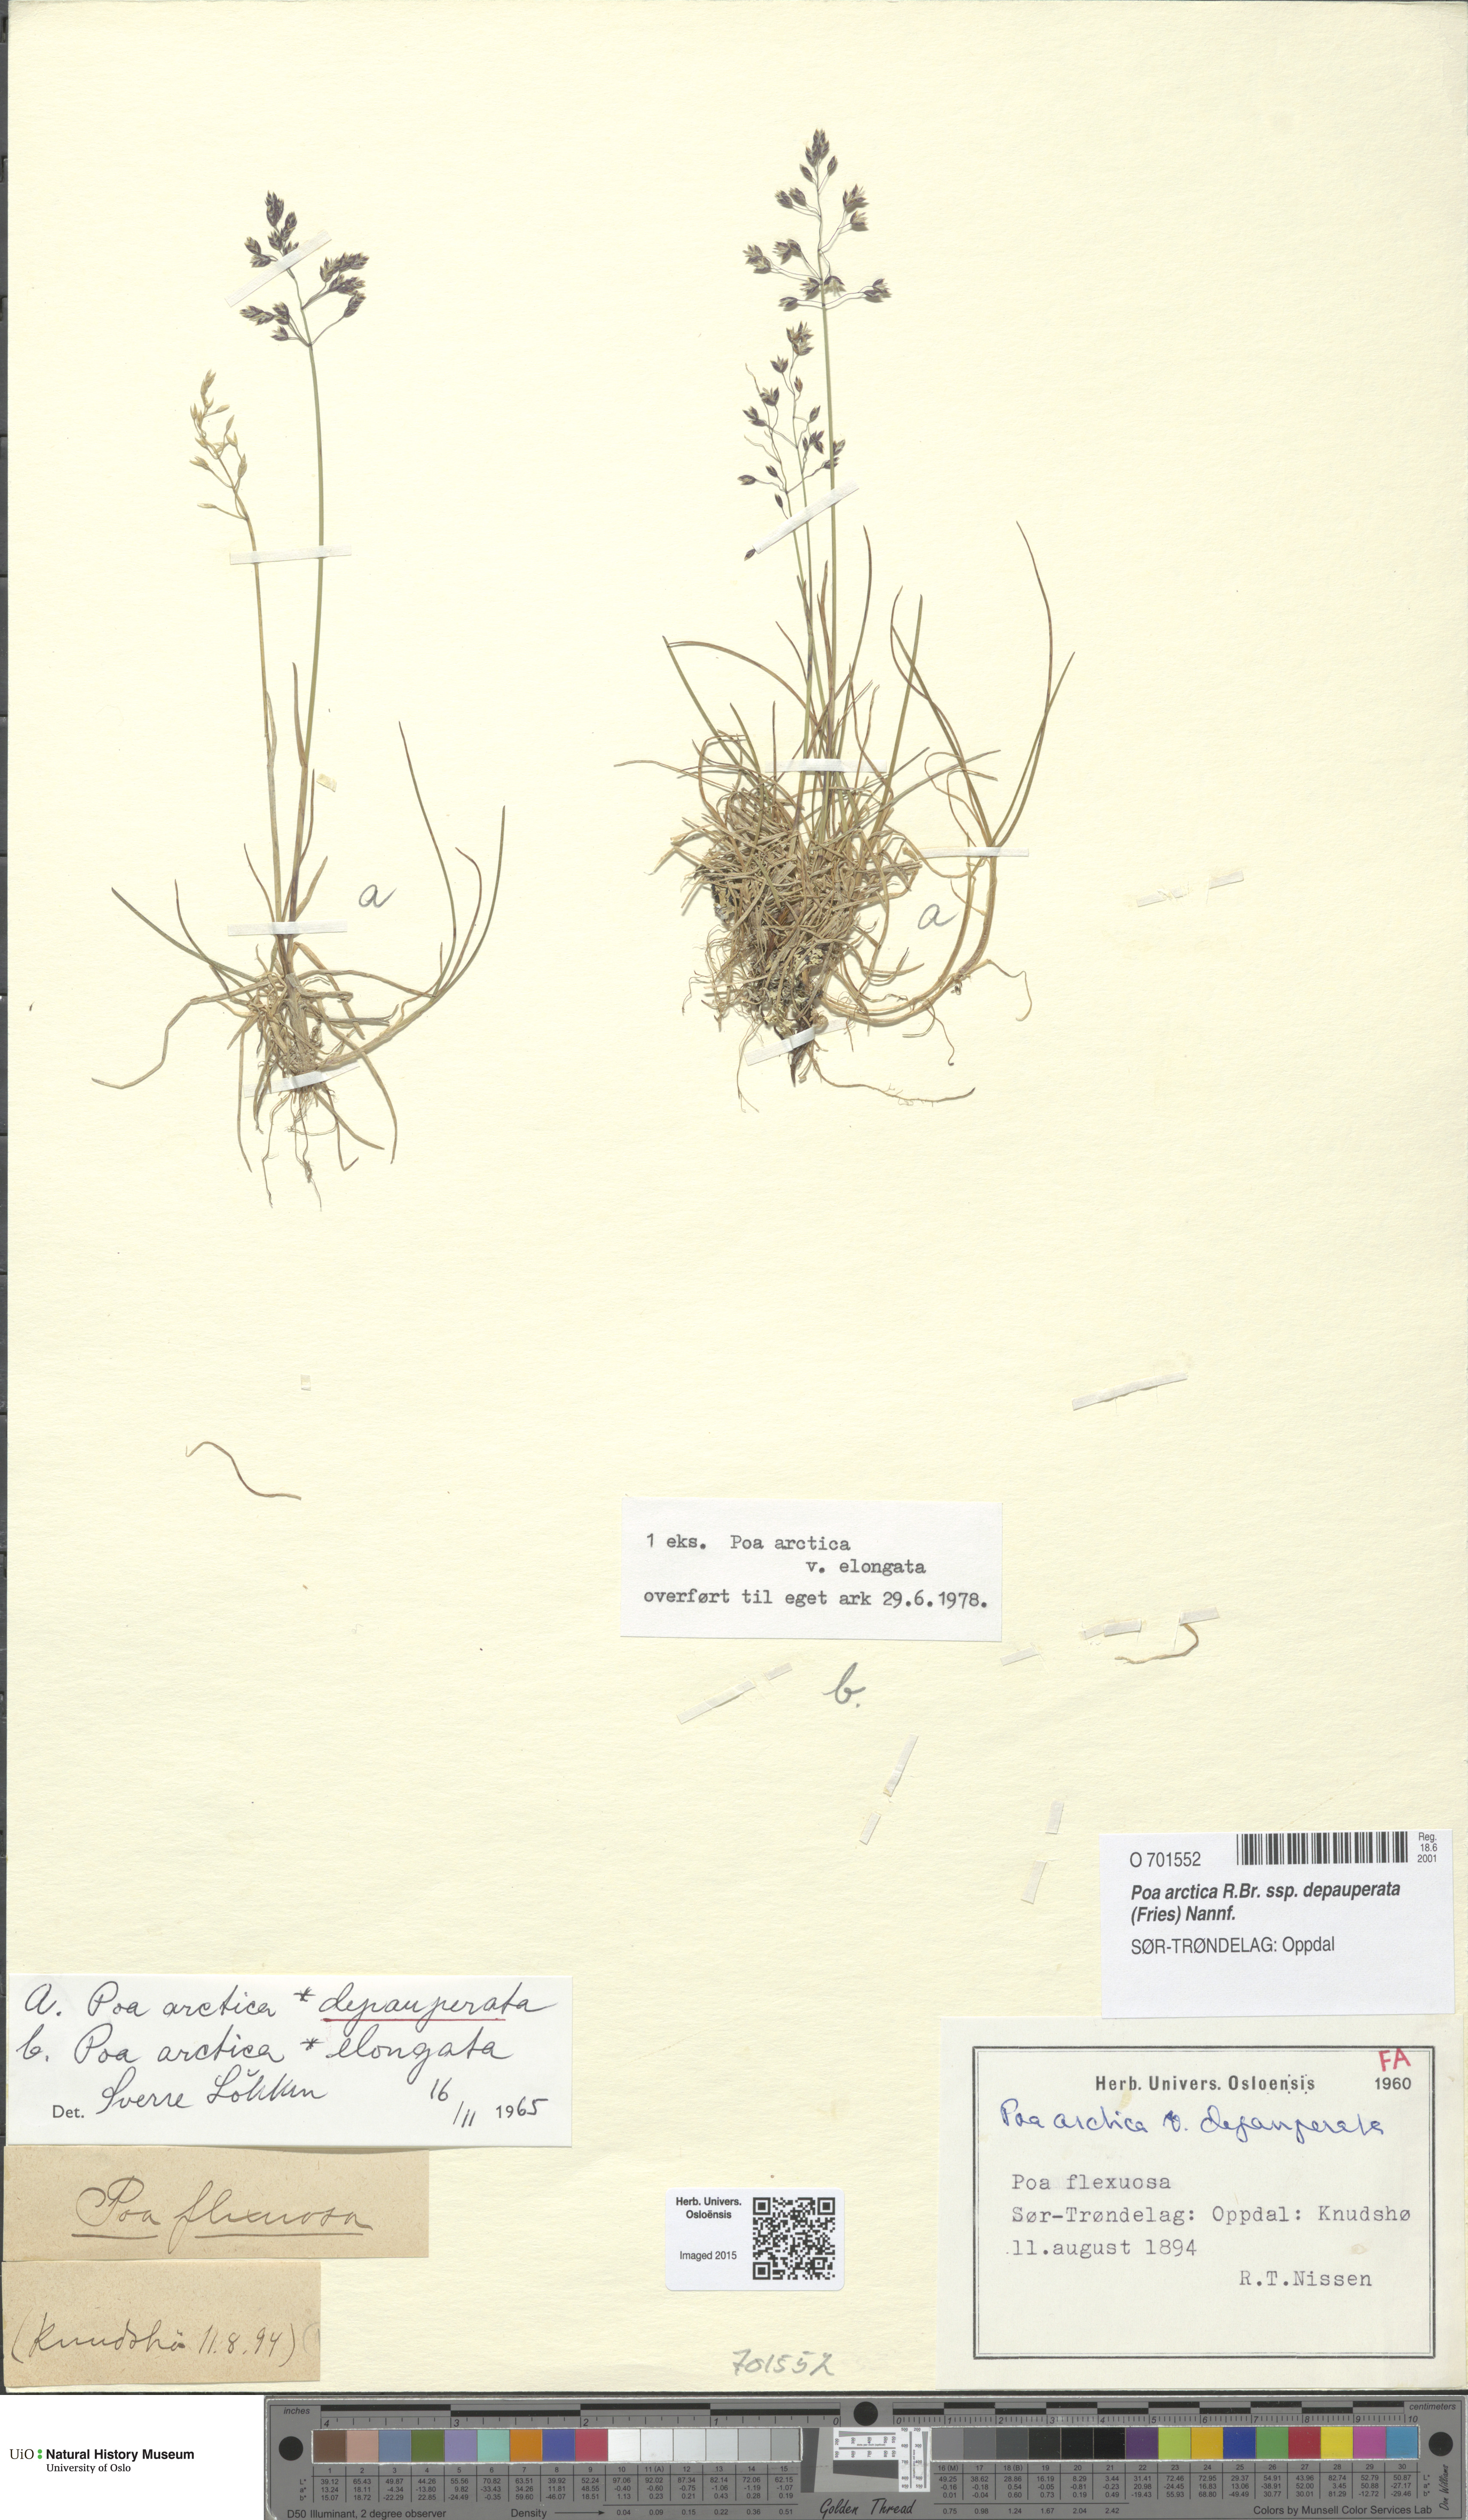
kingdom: Plantae
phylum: Tracheophyta
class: Liliopsida
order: Poales
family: Poaceae
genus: Poa
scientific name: Poa arctica
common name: Arctic bluegrass
